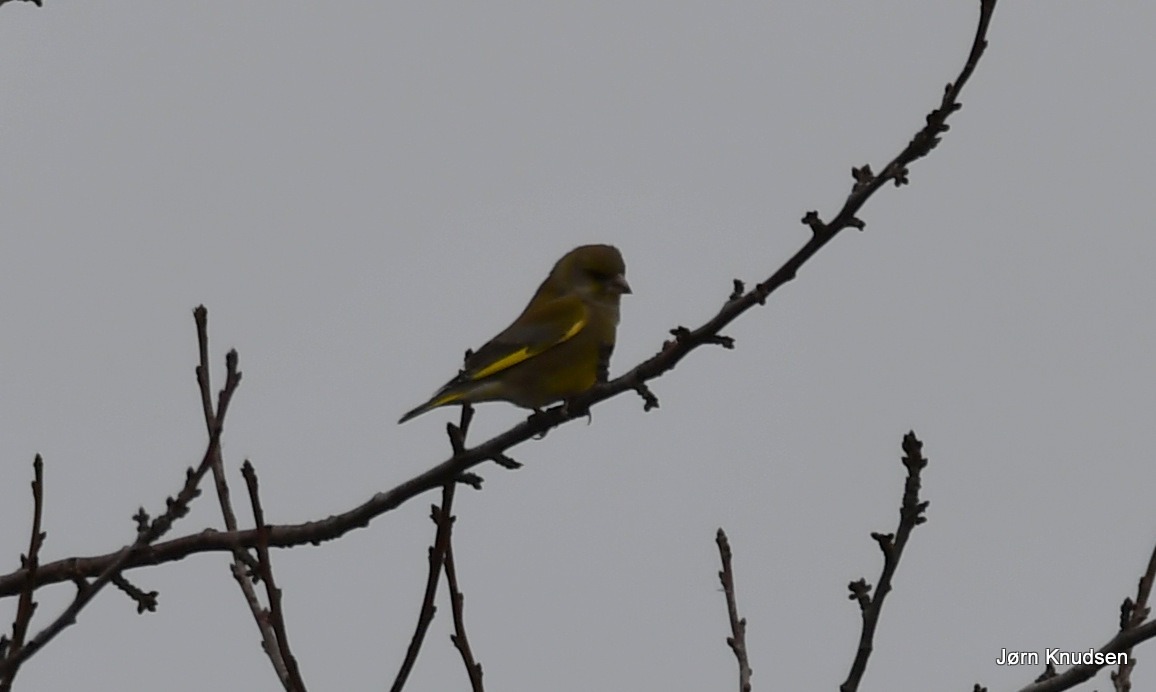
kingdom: Plantae
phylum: Tracheophyta
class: Liliopsida
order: Poales
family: Poaceae
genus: Chloris
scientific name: Chloris chloris
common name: Grønirisk
